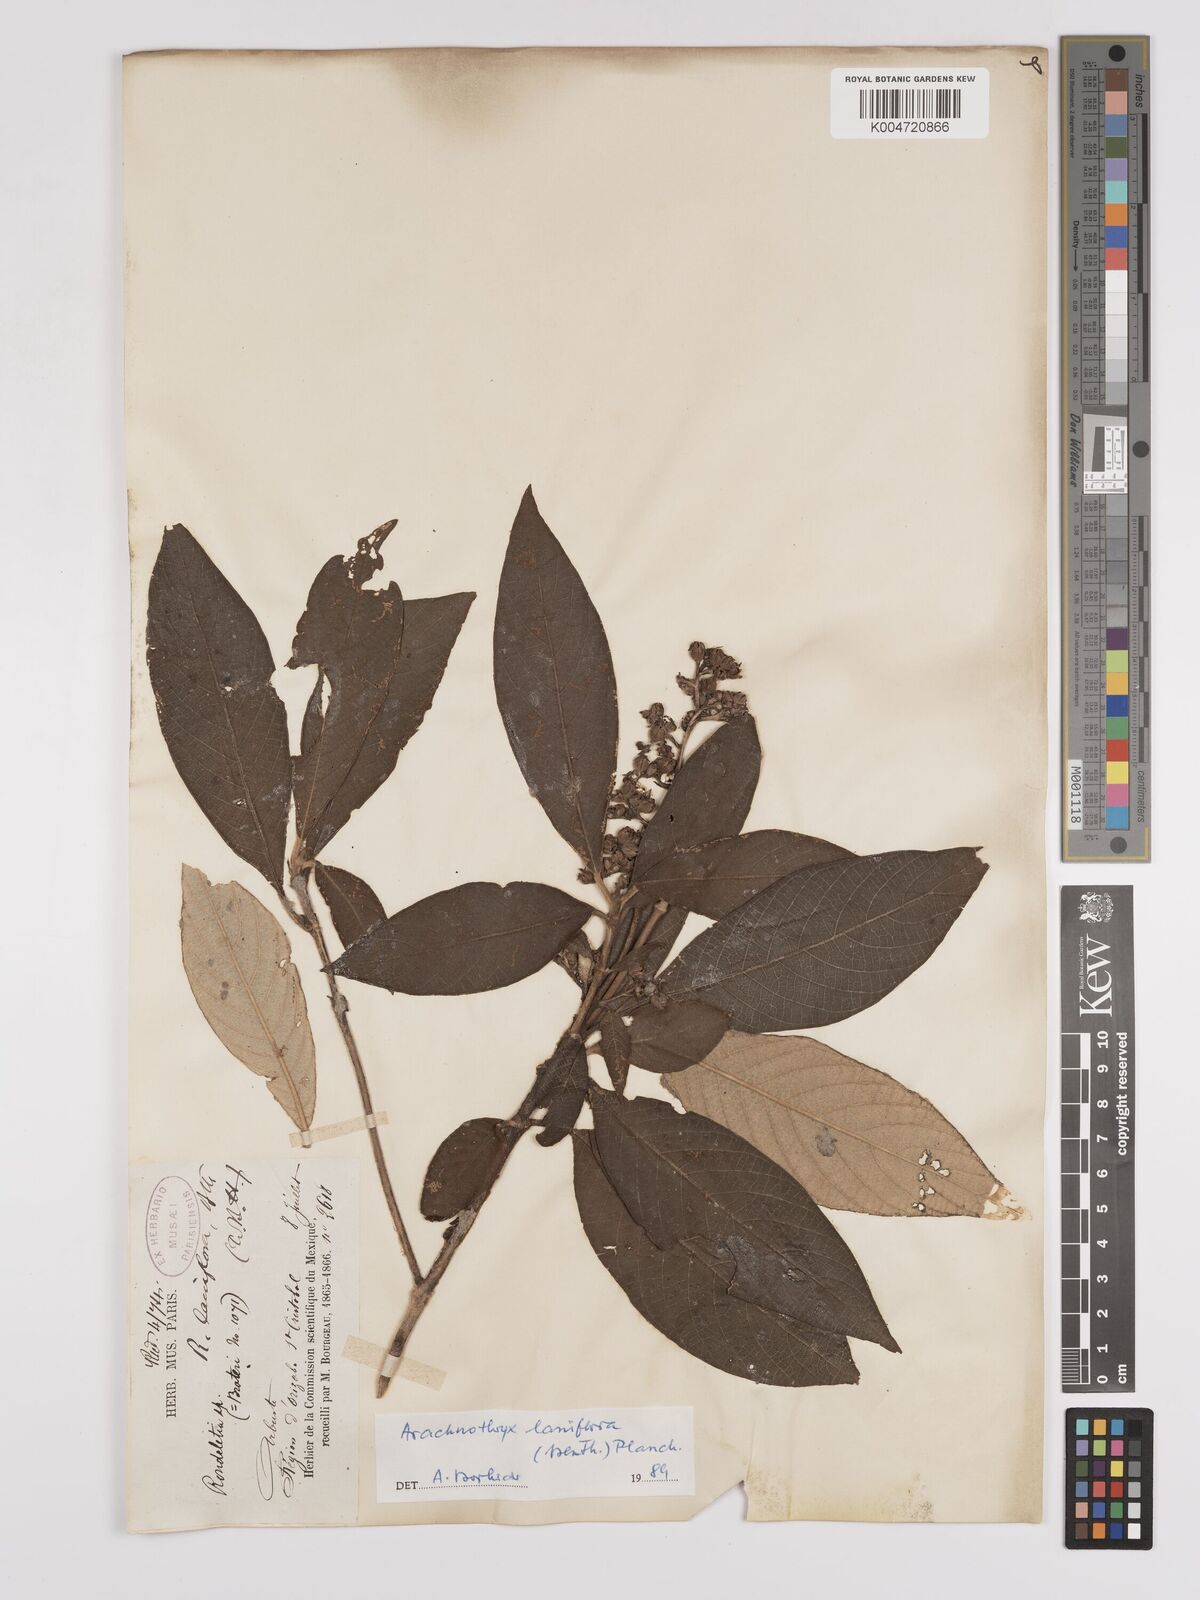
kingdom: Plantae
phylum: Tracheophyta
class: Magnoliopsida
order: Gentianales
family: Rubiaceae
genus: Arachnothryx
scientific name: Arachnothryx laniflora
